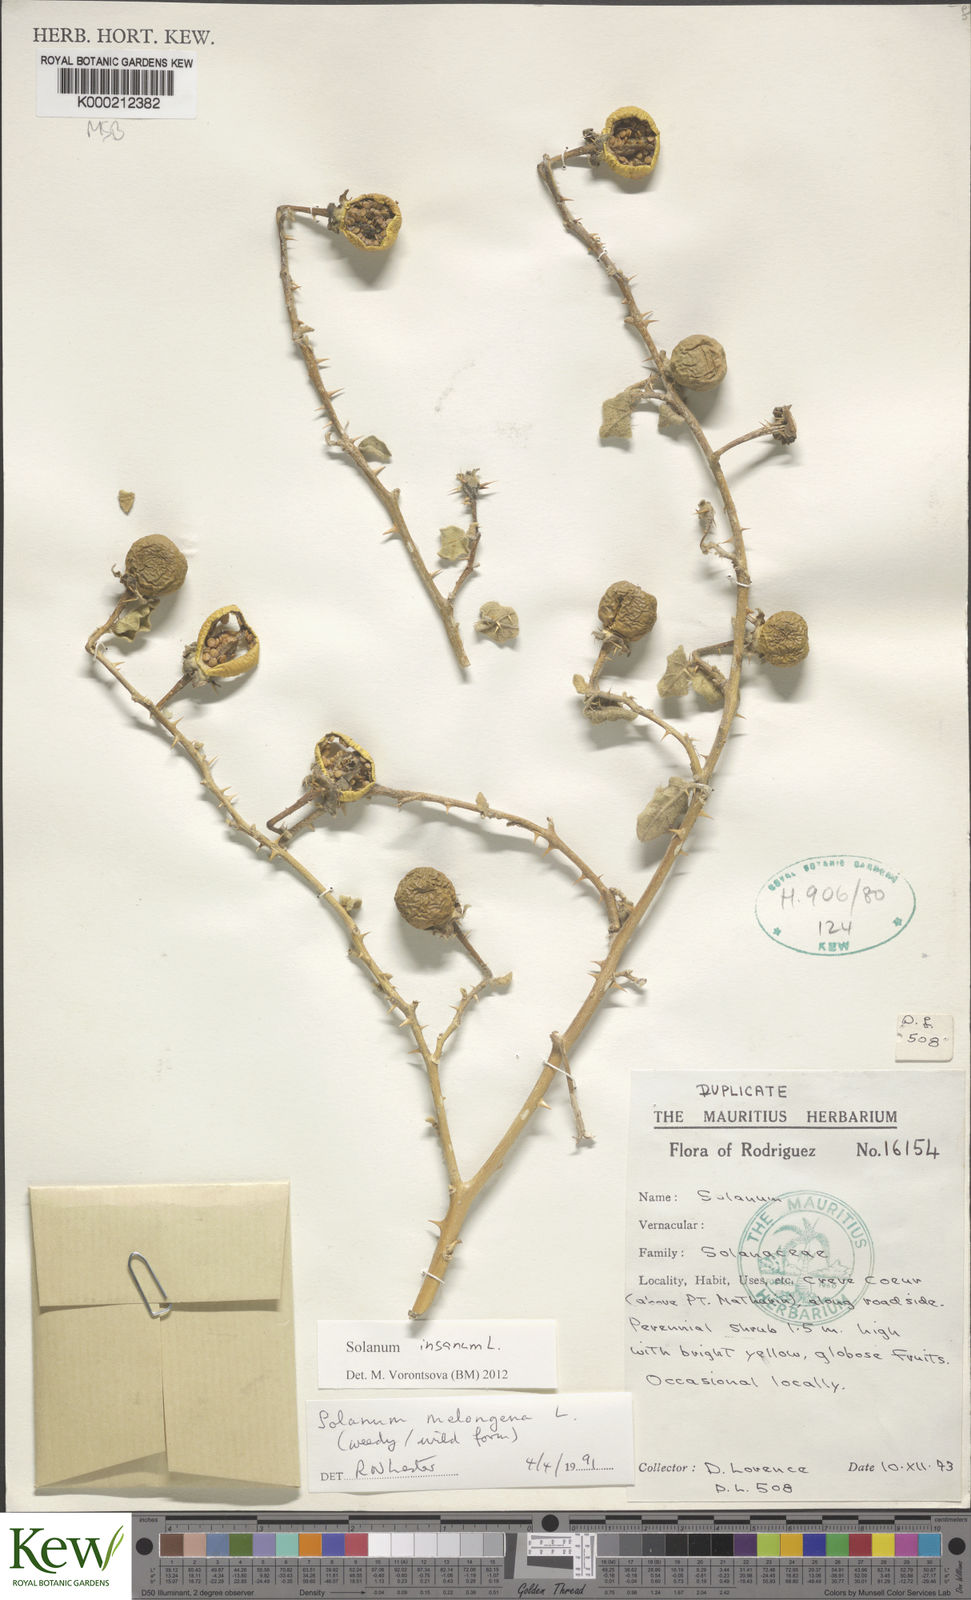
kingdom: Plantae
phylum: Tracheophyta
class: Magnoliopsida
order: Solanales
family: Solanaceae
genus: Solanum
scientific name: Solanum melongena
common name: Eggplant
